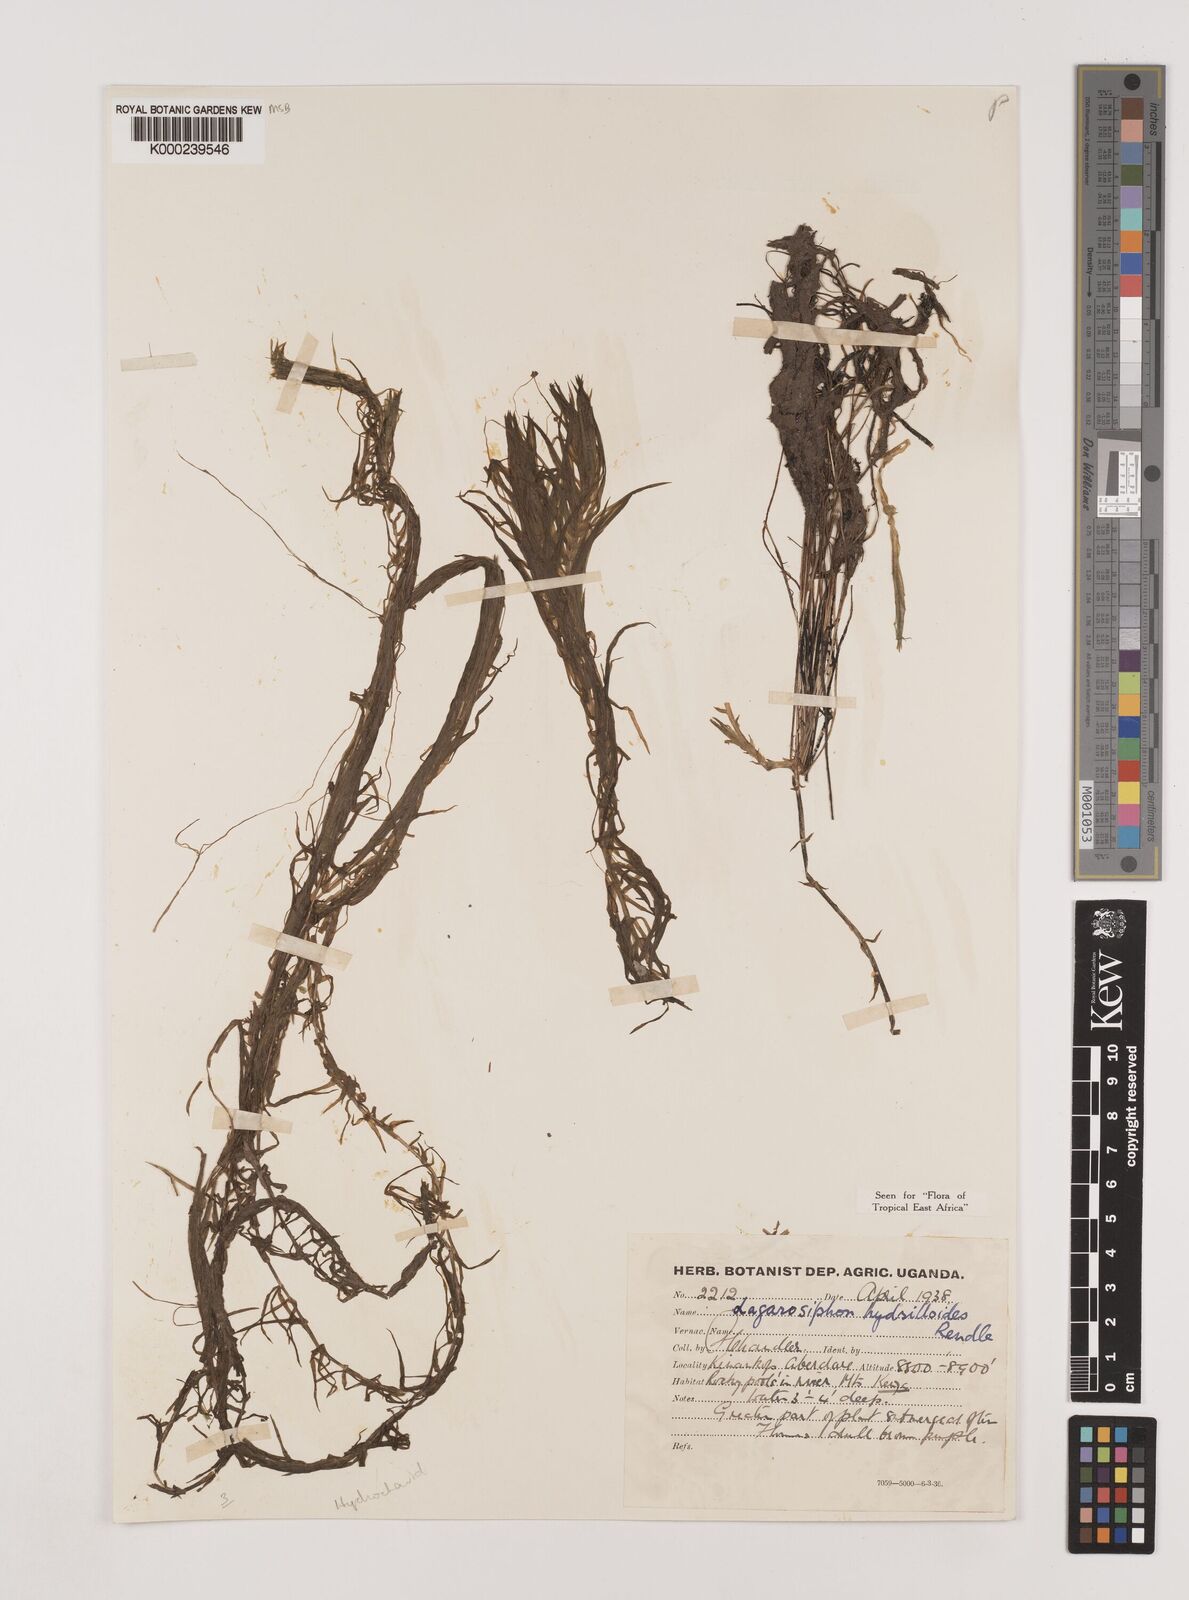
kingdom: Plantae
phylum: Tracheophyta
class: Liliopsida
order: Alismatales
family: Hydrocharitaceae
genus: Lagarosiphon
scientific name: Lagarosiphon hydrilloides
